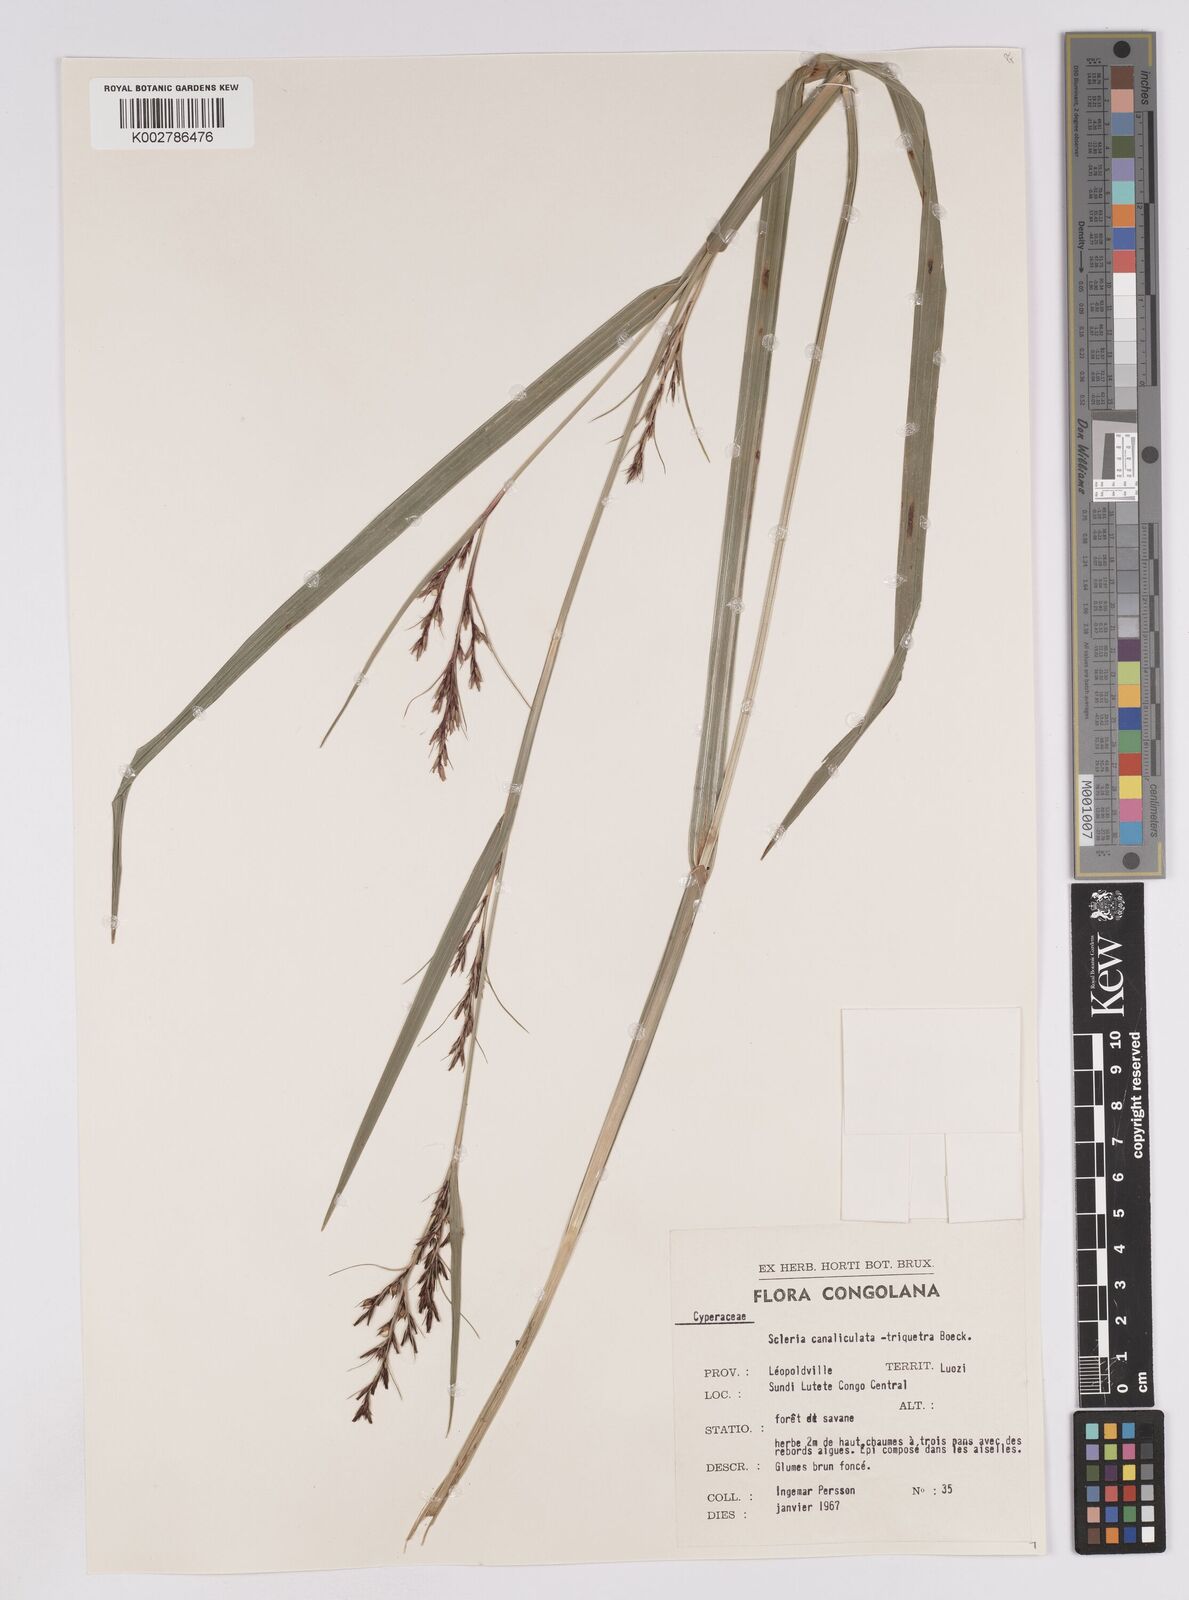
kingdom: Plantae
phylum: Tracheophyta
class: Liliopsida
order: Poales
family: Cyperaceae
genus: Scleria
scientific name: Scleria lagoensis
